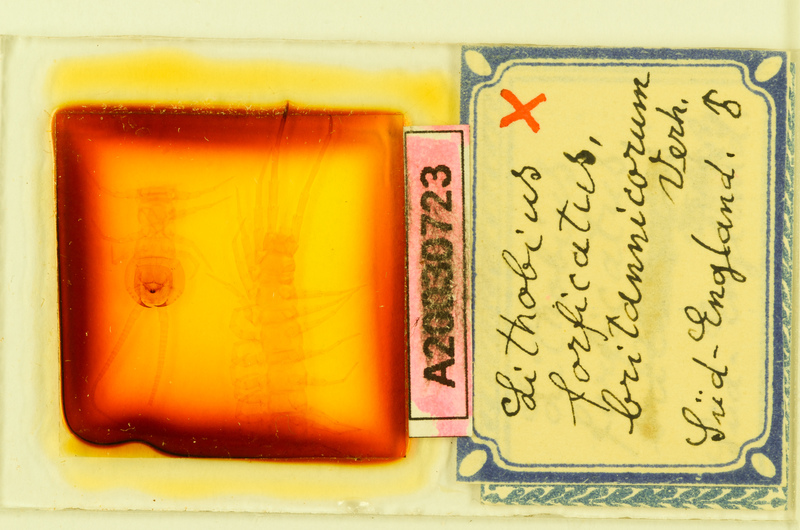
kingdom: Animalia
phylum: Arthropoda
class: Chilopoda
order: Lithobiomorpha
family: Lithobiidae
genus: Lithobius
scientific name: Lithobius forficatus
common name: Centipede
